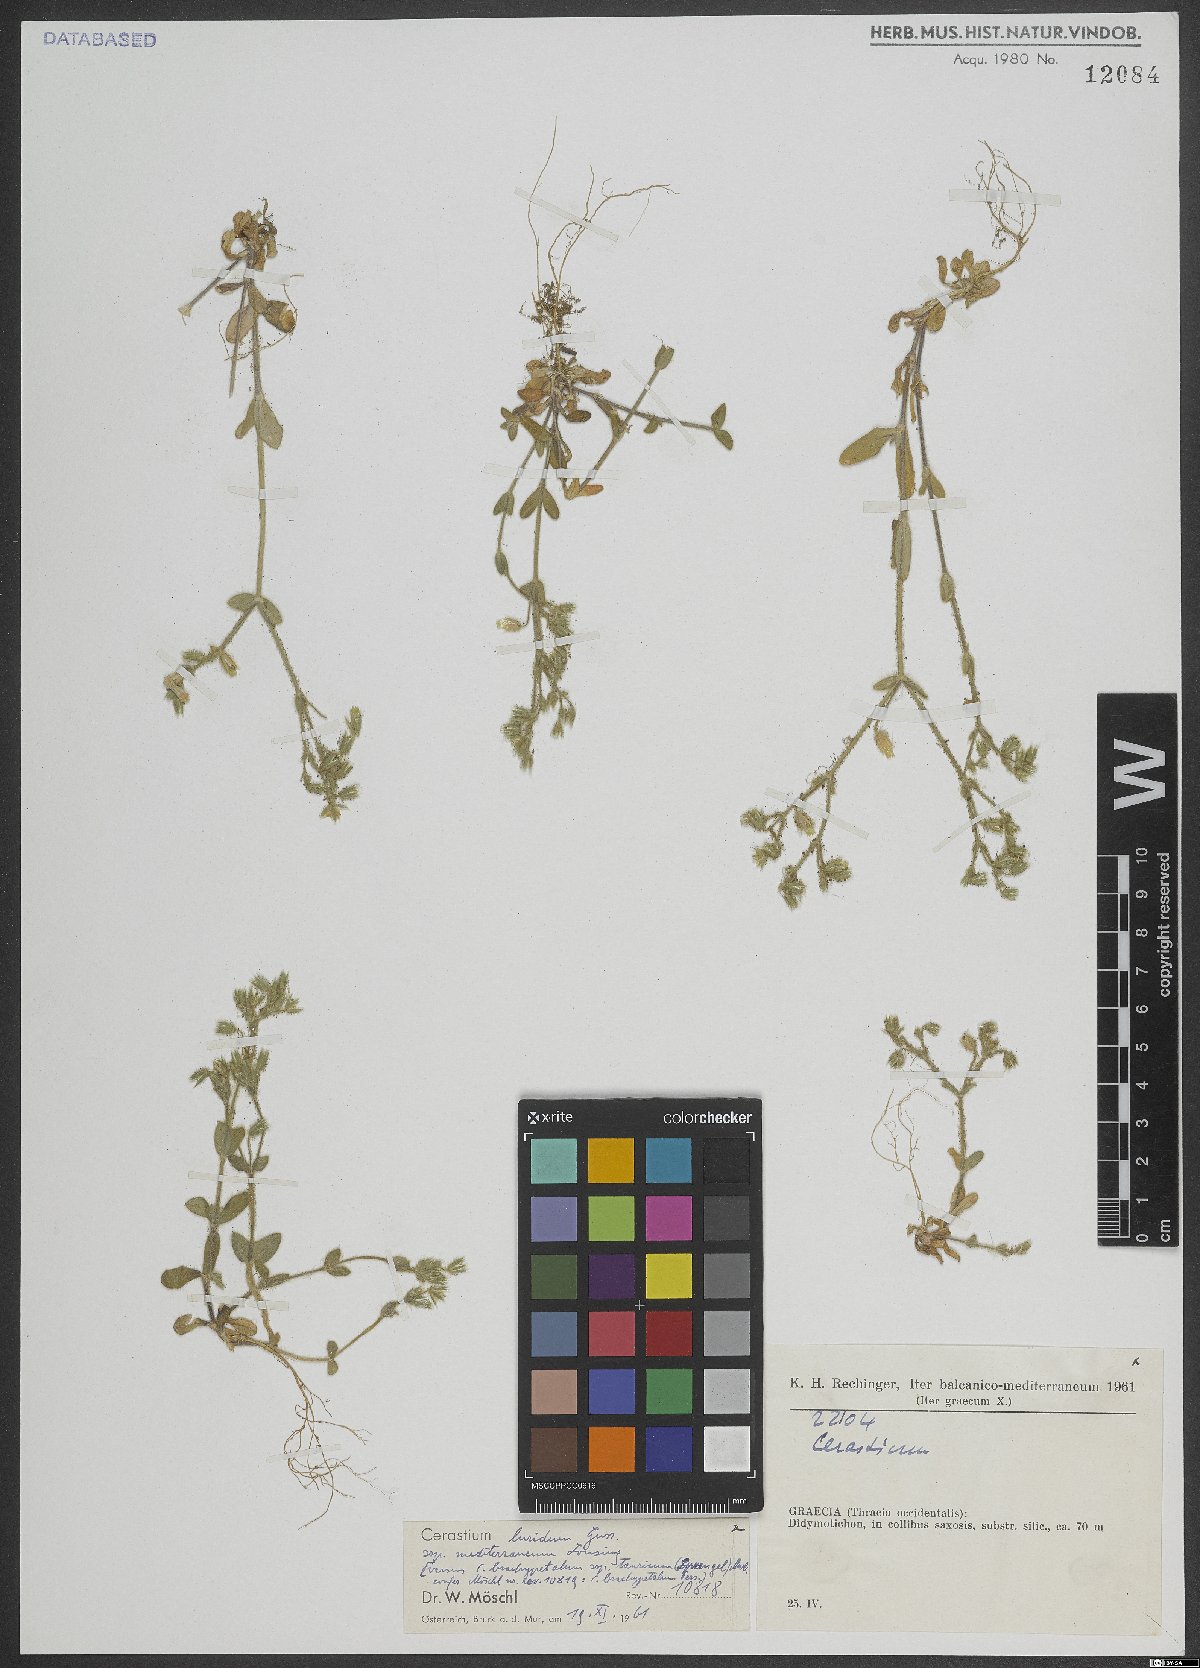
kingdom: Plantae
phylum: Tracheophyta
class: Magnoliopsida
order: Caryophyllales
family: Caryophyllaceae
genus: Cerastium
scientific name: Cerastium brachypetalum
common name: Grey mouse-ear
